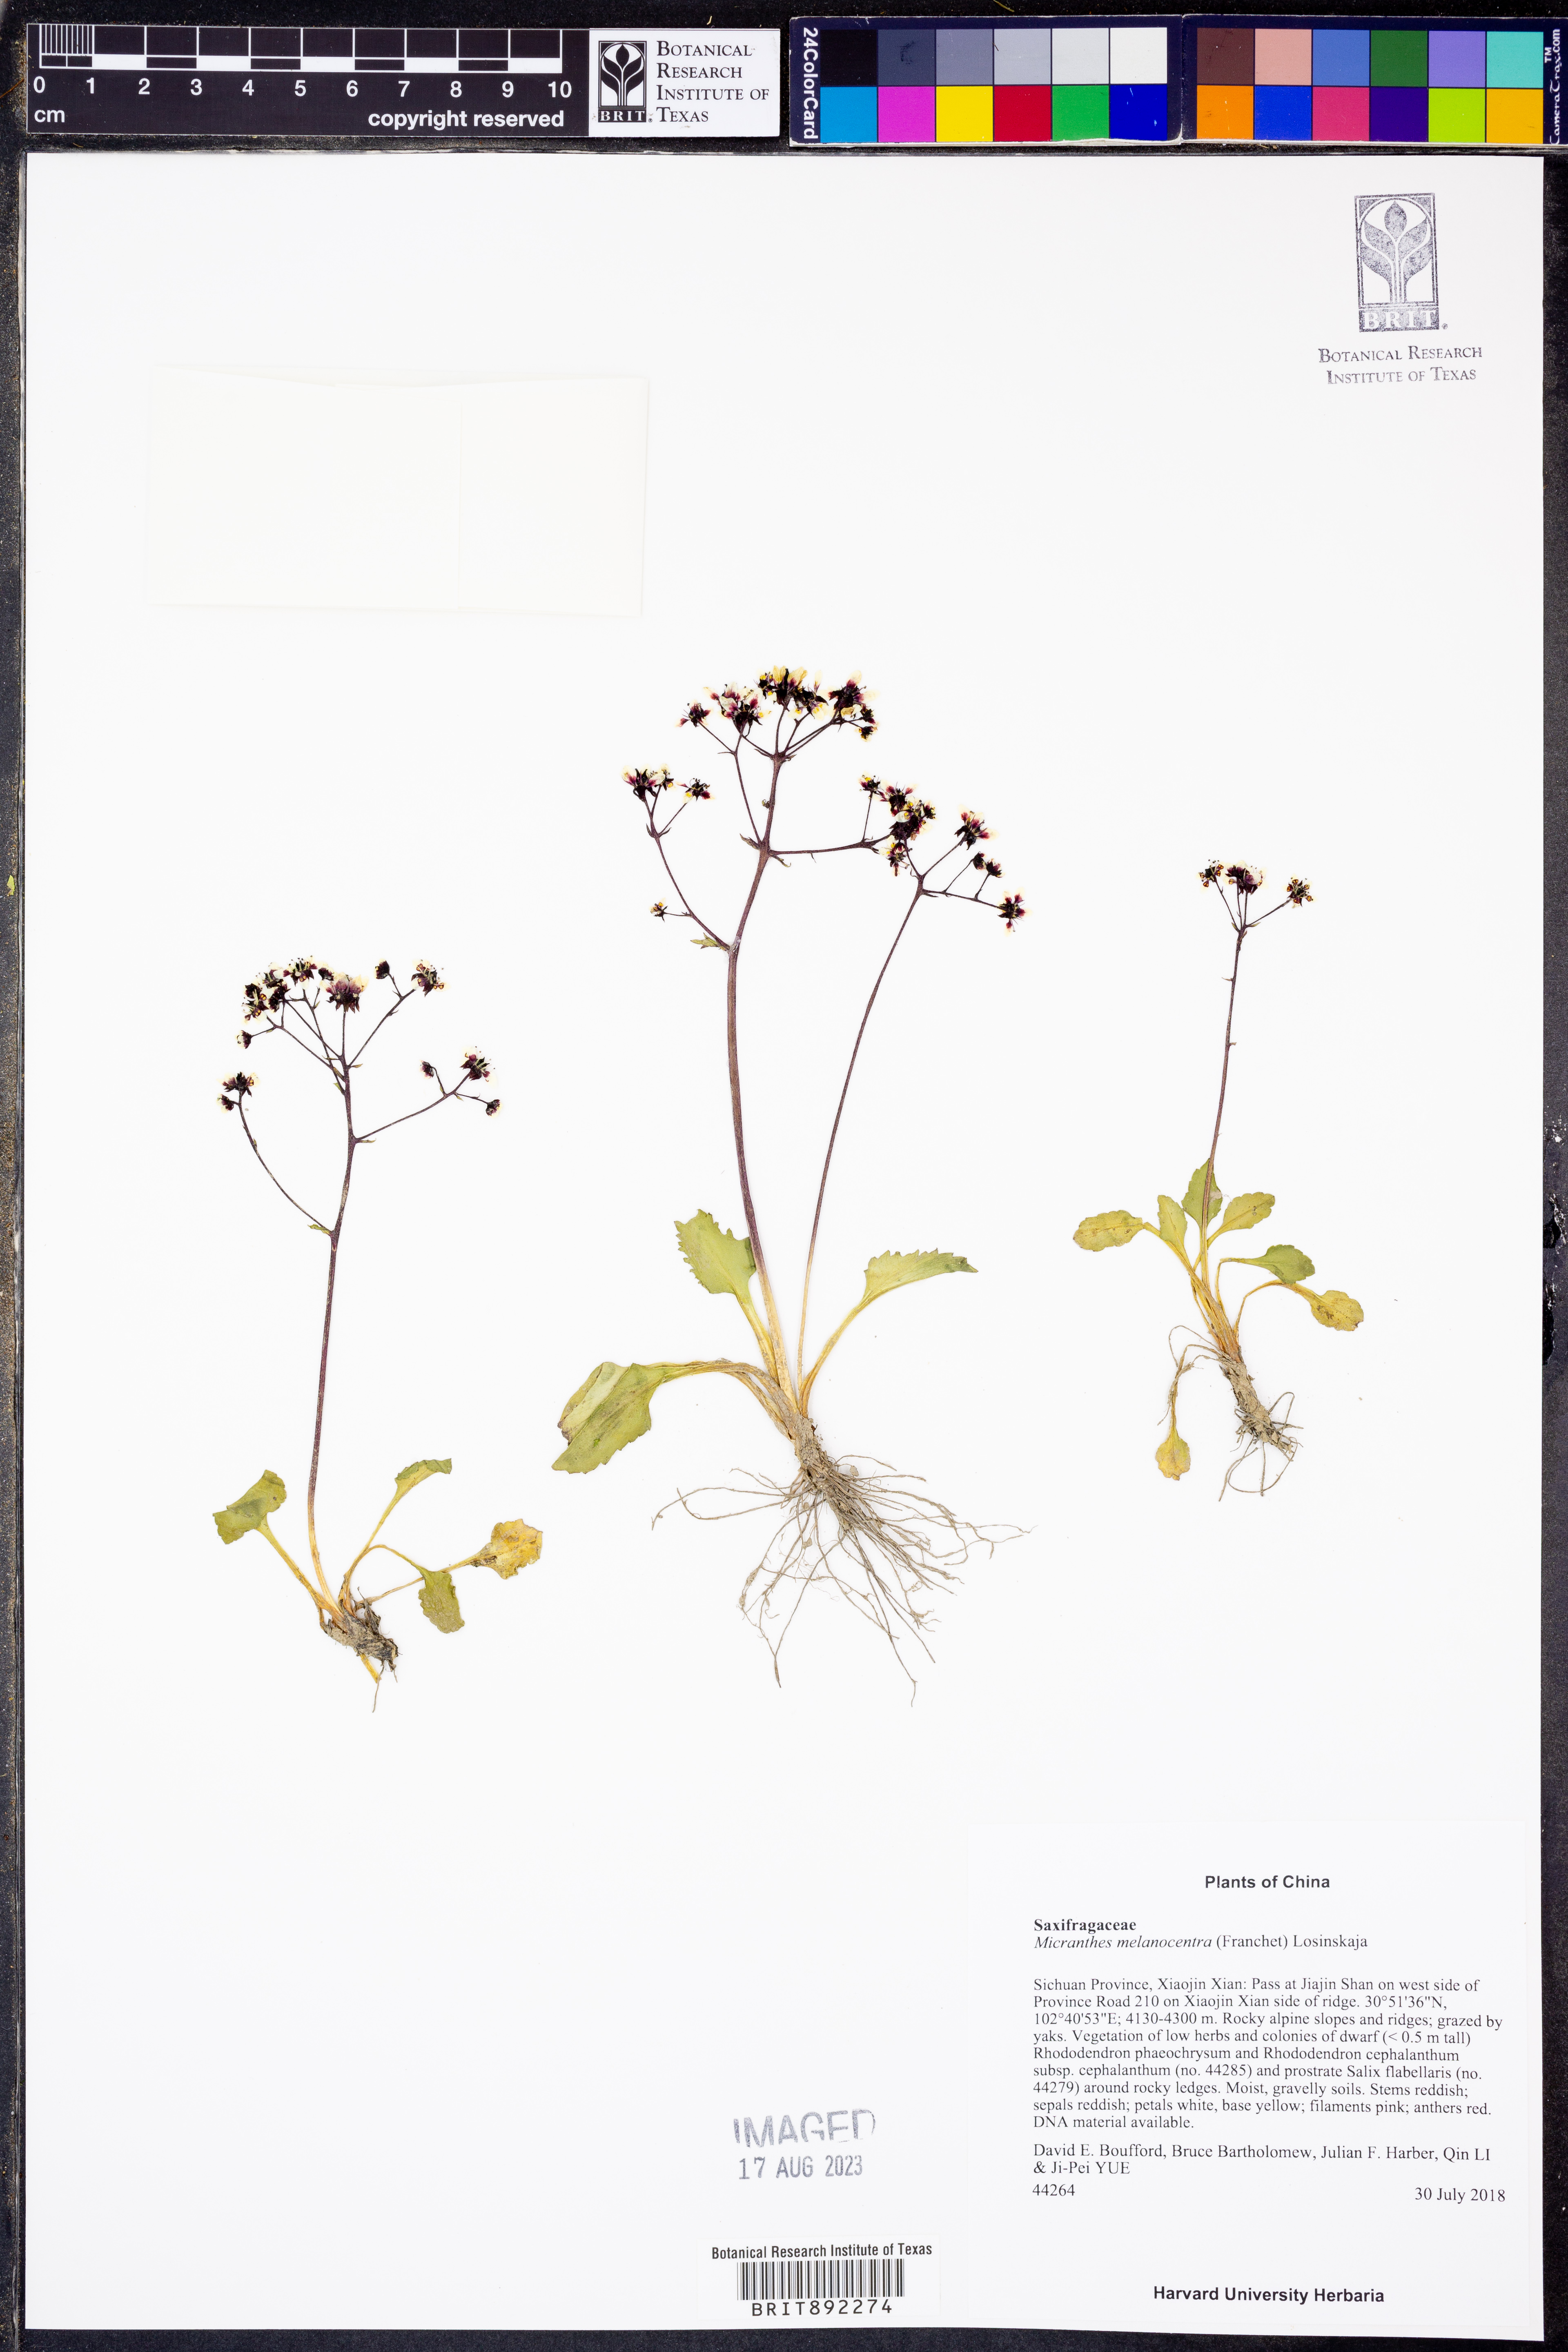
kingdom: Plantae
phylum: Tracheophyta
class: Magnoliopsida
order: Saxifragales
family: Saxifragaceae
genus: Micranthes
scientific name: Micranthes melanocentra
